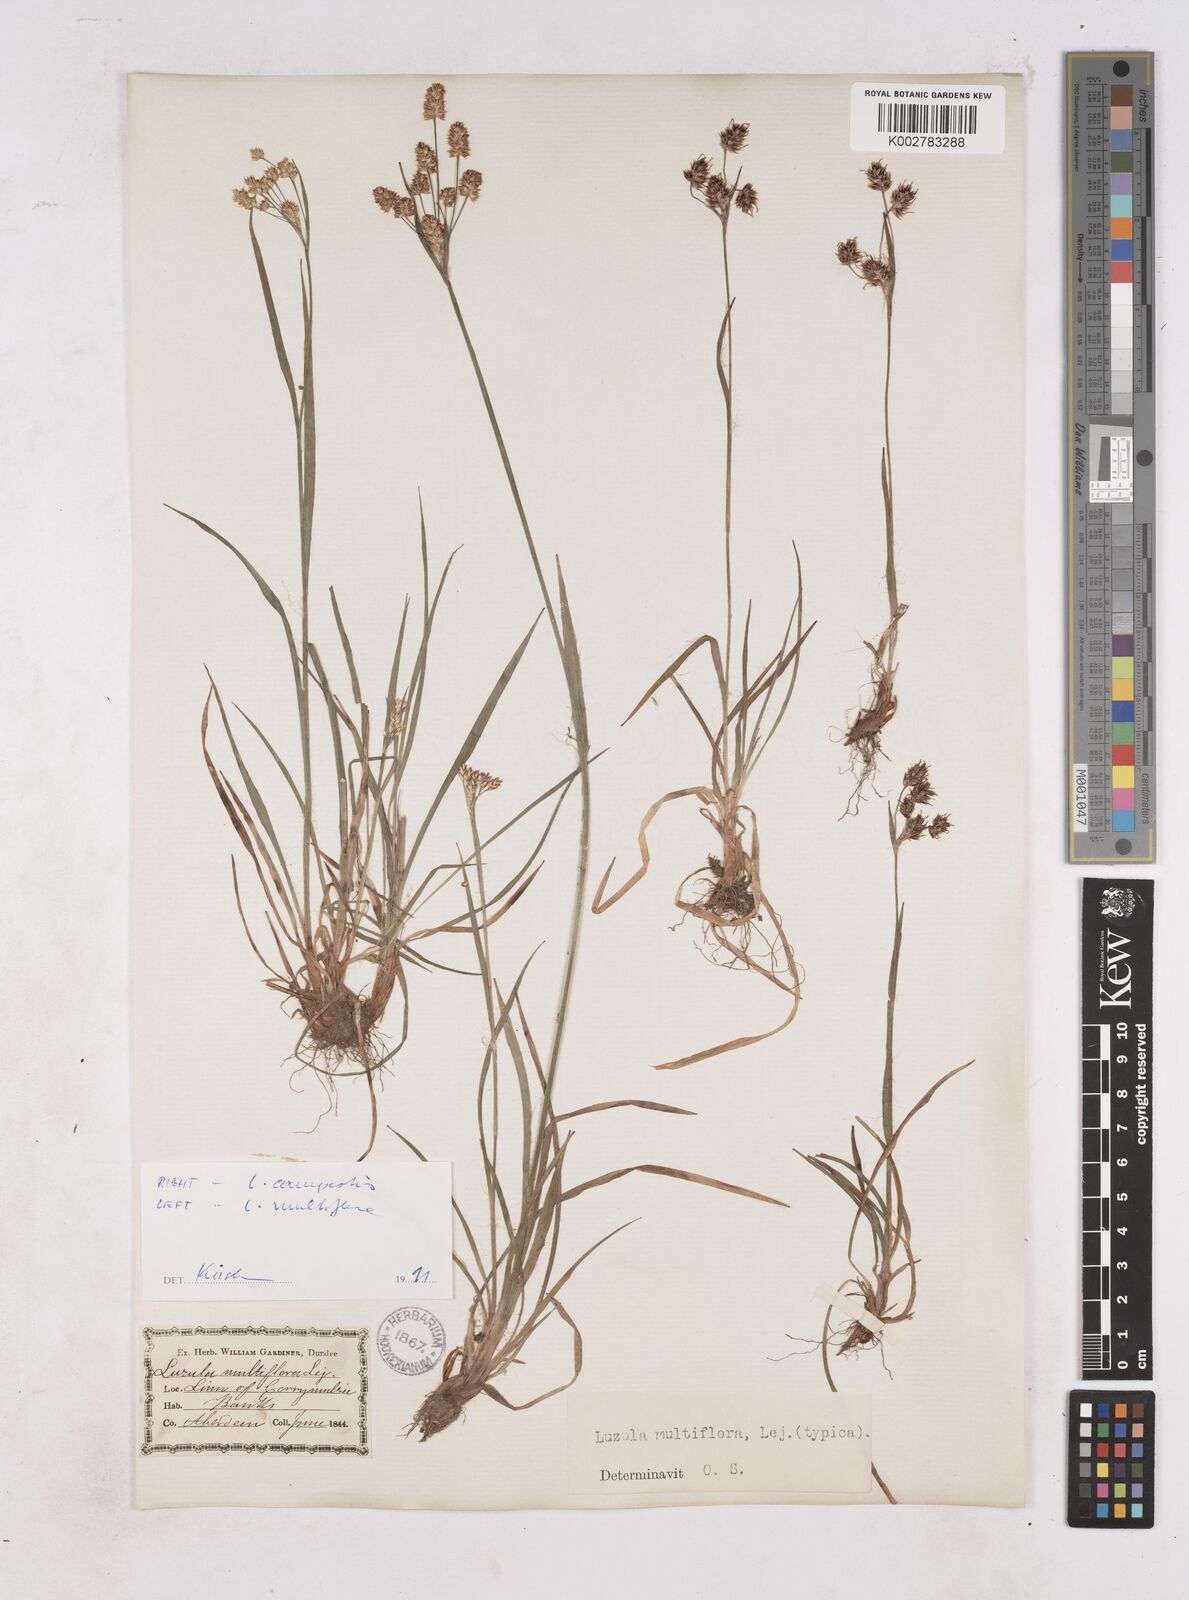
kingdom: Plantae
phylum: Tracheophyta
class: Liliopsida
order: Poales
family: Juncaceae
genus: Luzula
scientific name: Luzula multiflora
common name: Heath wood-rush
